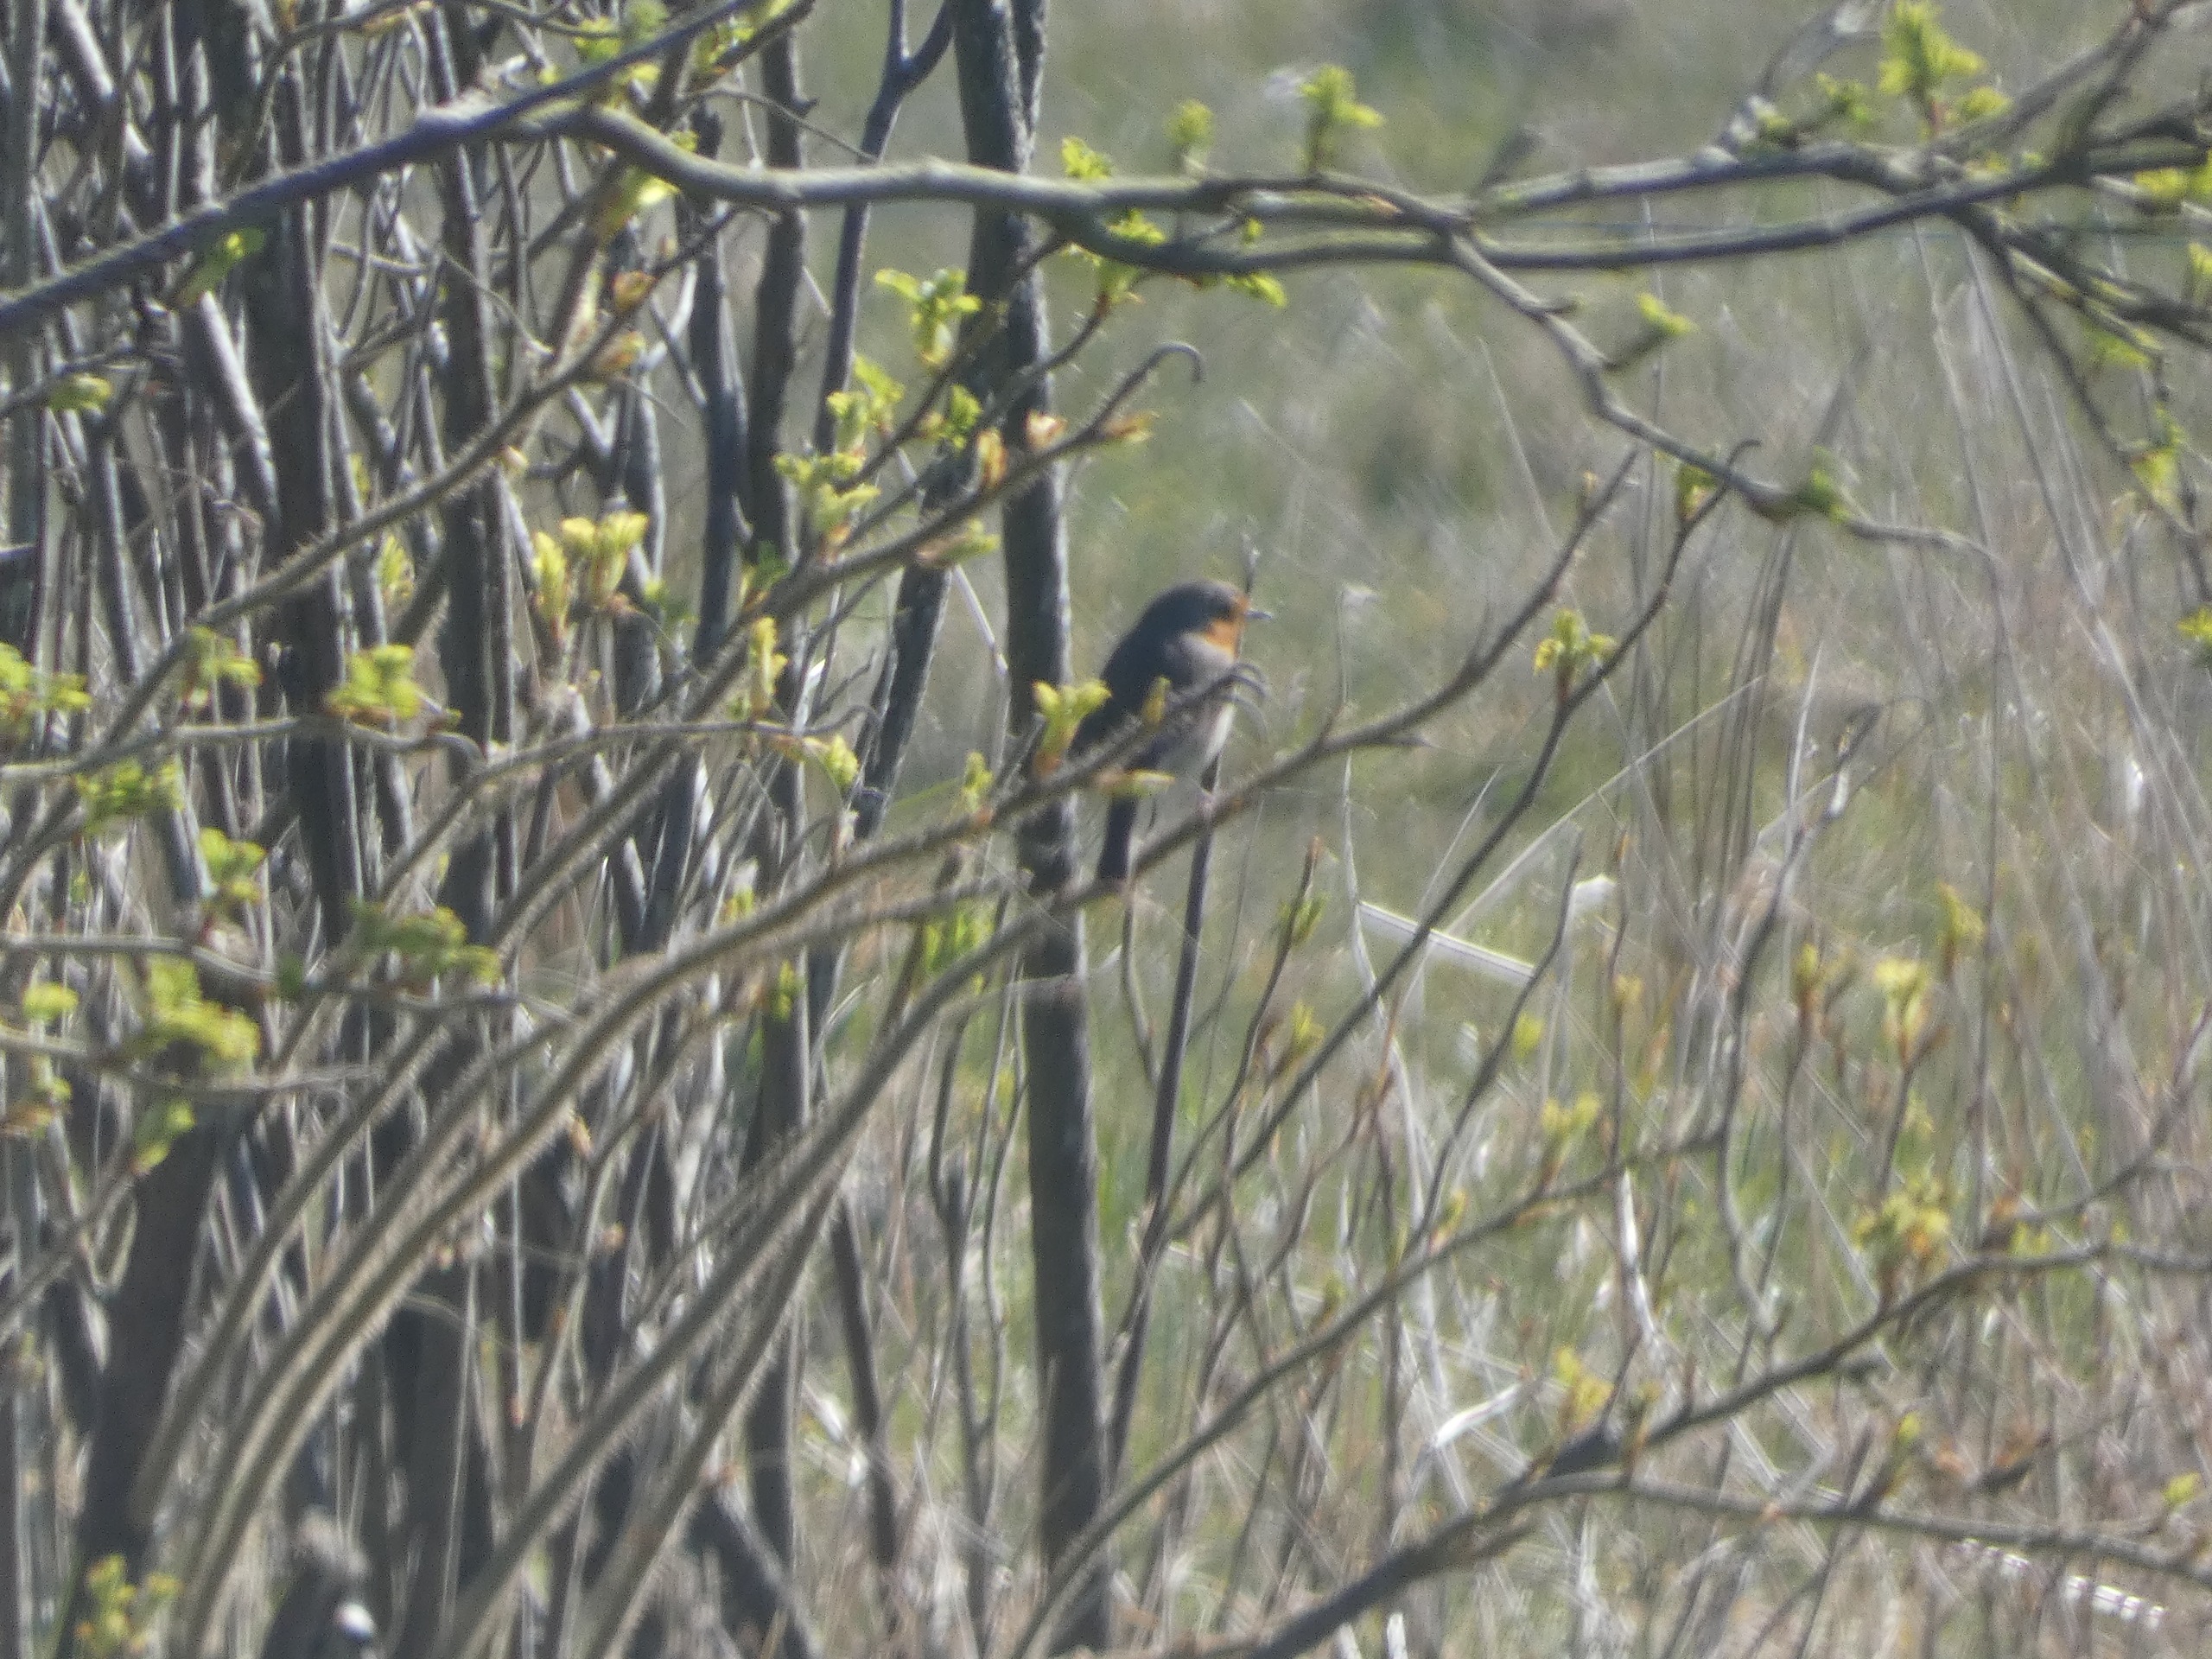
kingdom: Animalia
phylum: Chordata
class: Aves
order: Passeriformes
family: Muscicapidae
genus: Erithacus
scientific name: Erithacus rubecula
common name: Rødhals/rødkælk
